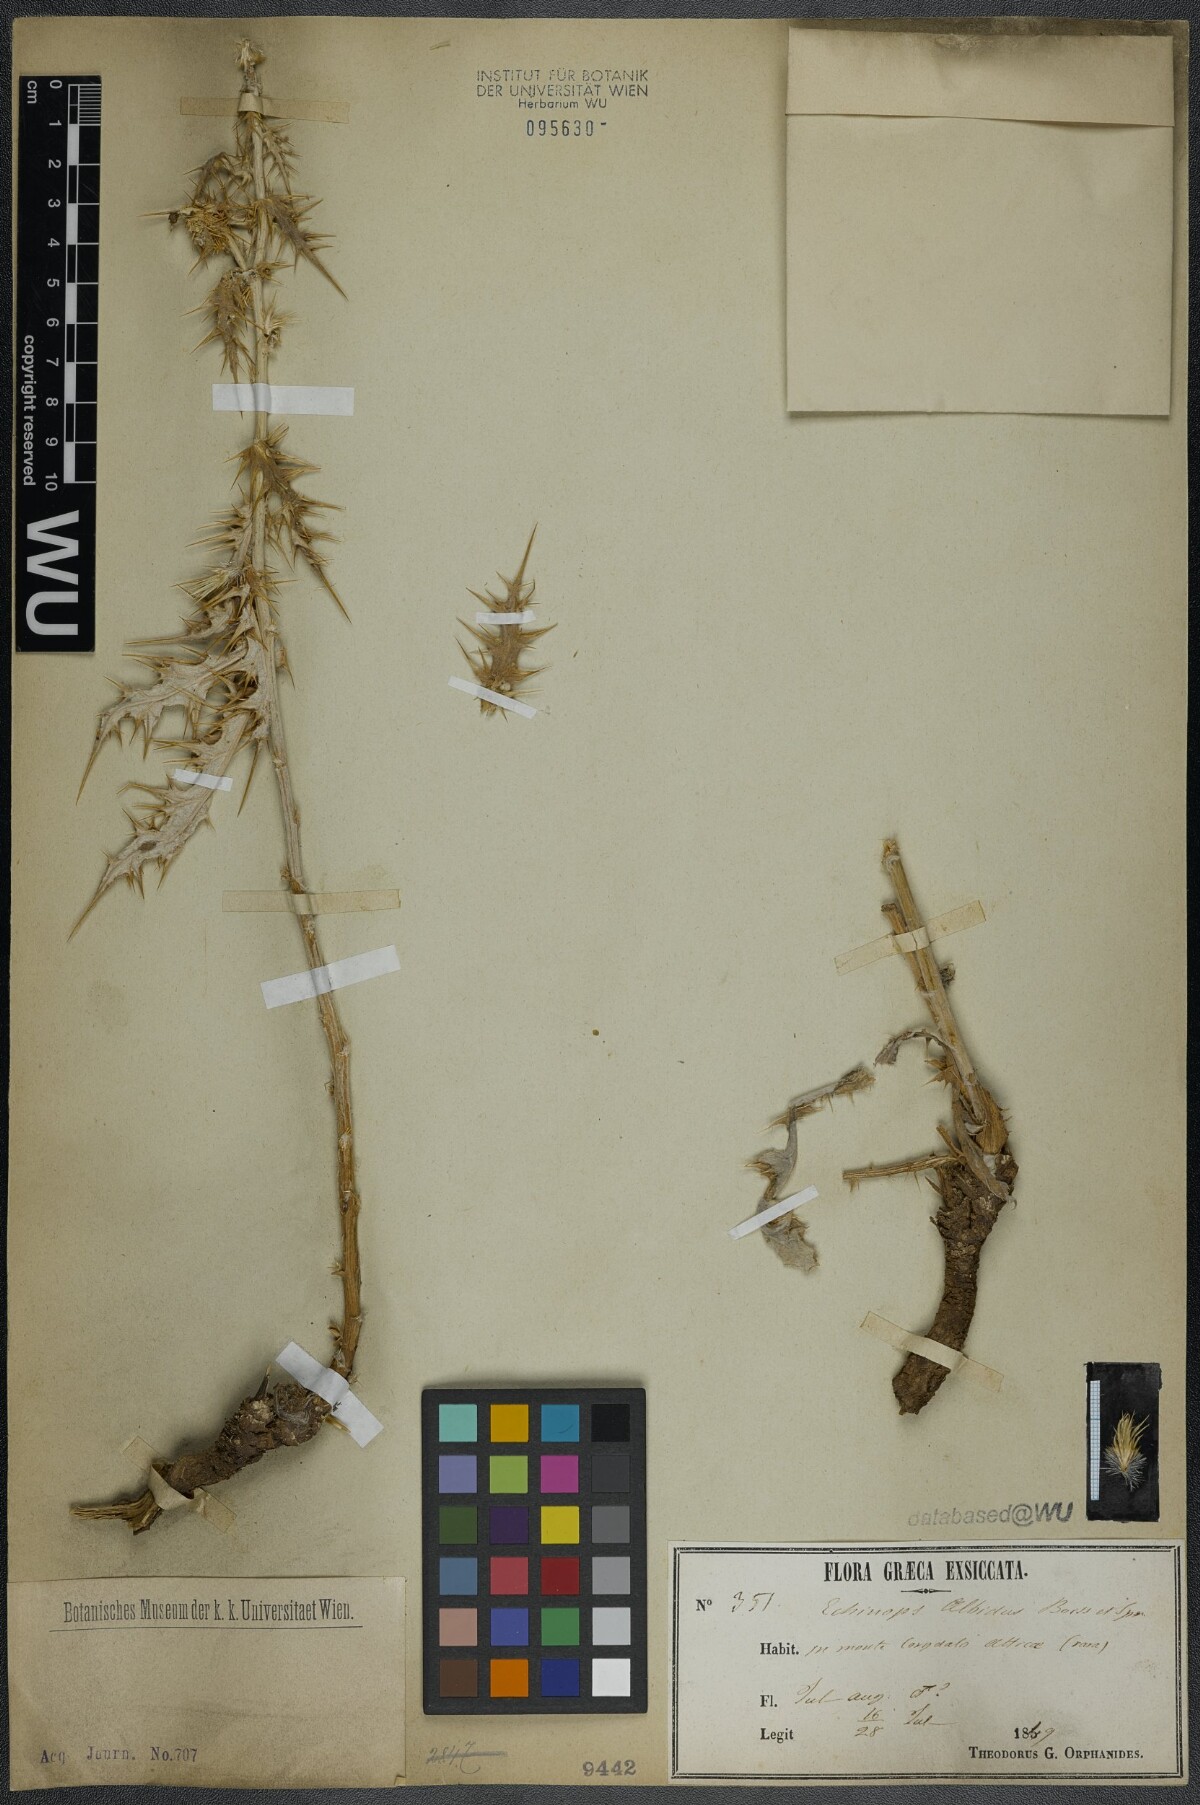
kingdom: Plantae
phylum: Tracheophyta
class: Magnoliopsida
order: Asterales
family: Asteraceae
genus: Echinops
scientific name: Echinops sphaerocephalus
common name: Glandular globe-thistle
